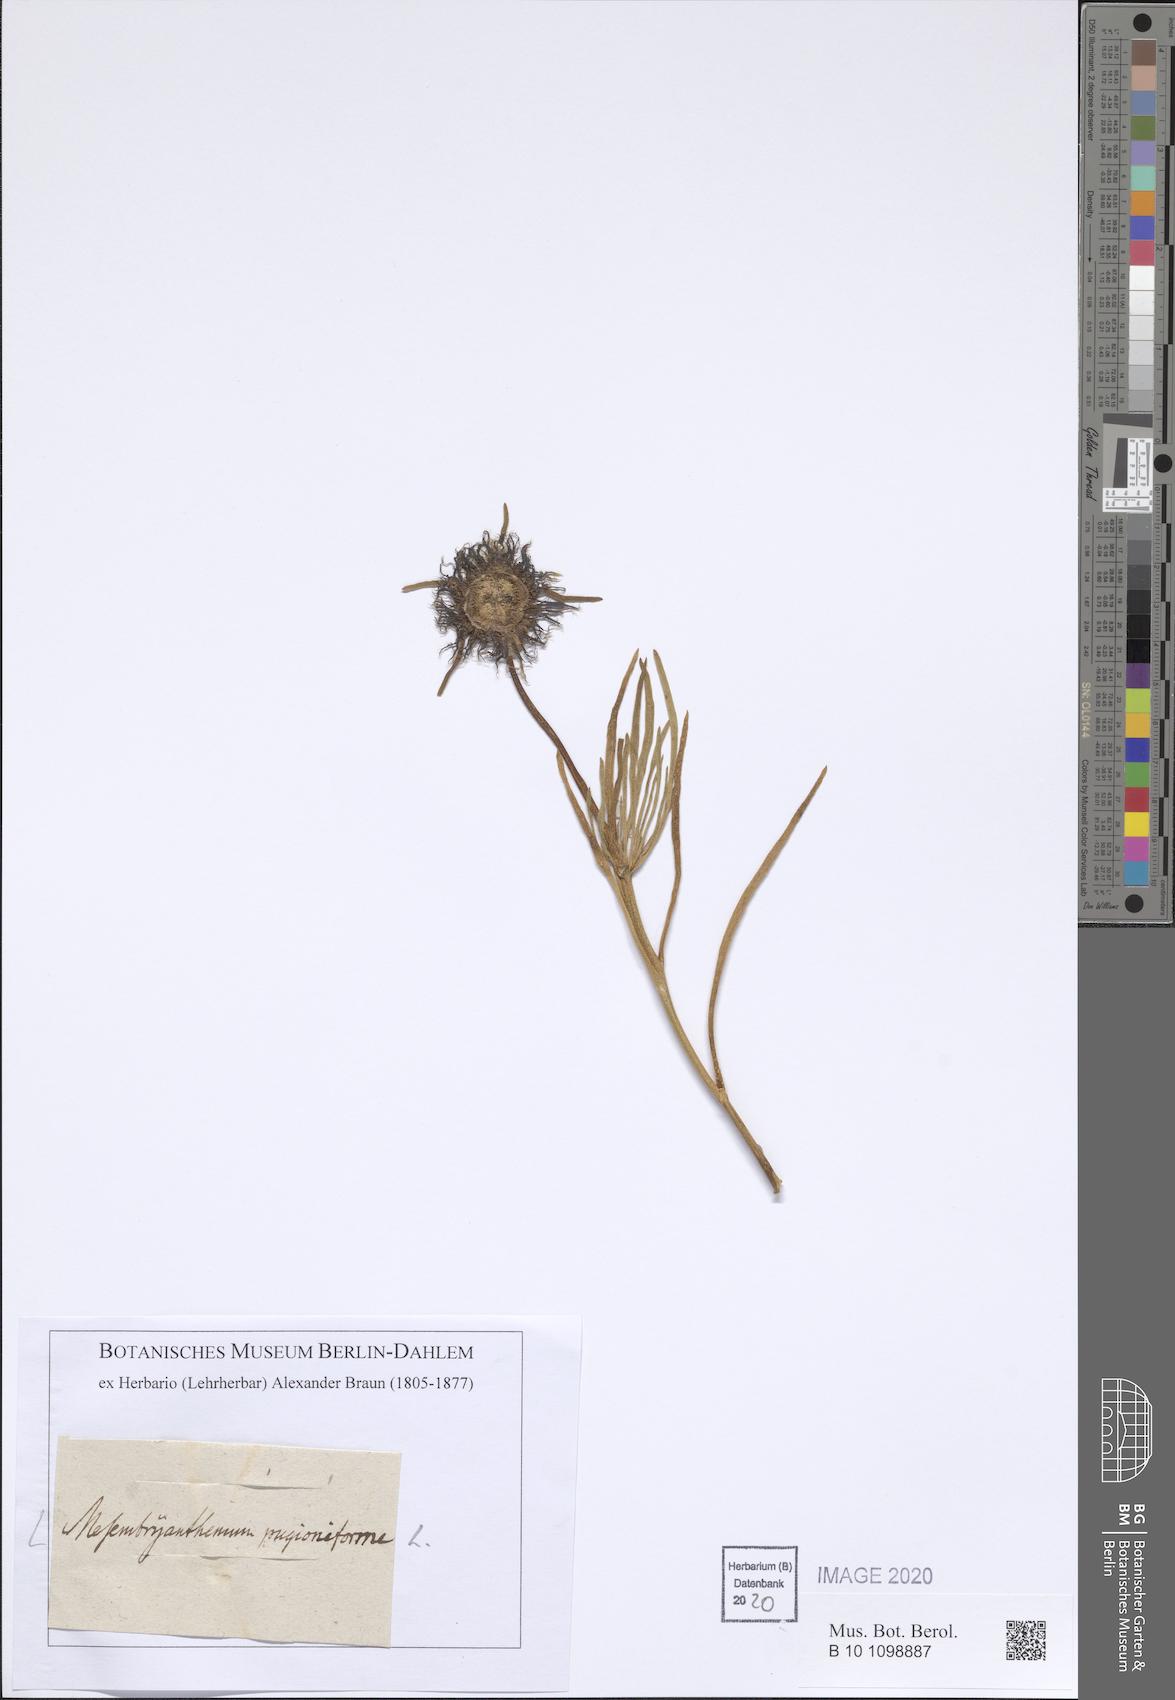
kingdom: Plantae
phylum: Tracheophyta
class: Magnoliopsida
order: Caryophyllales
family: Aizoaceae
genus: Conicosia
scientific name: Conicosia pugioniformis
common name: Narrow-leaved iceplant
